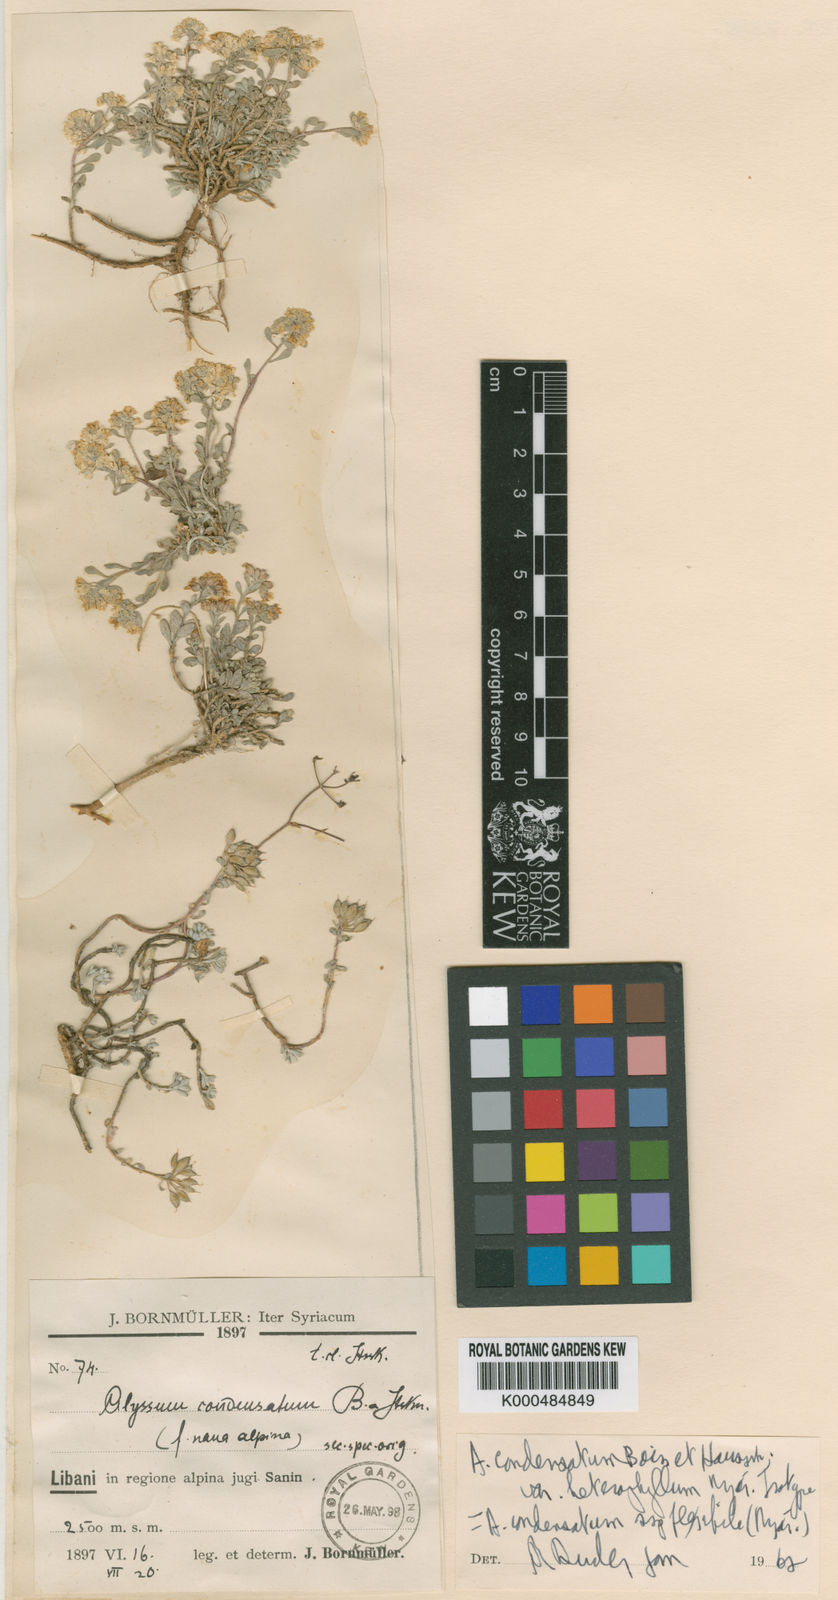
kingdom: Plantae
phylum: Tracheophyta
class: Magnoliopsida
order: Brassicales
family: Brassicaceae
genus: Odontarrhena
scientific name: Odontarrhena condensata
